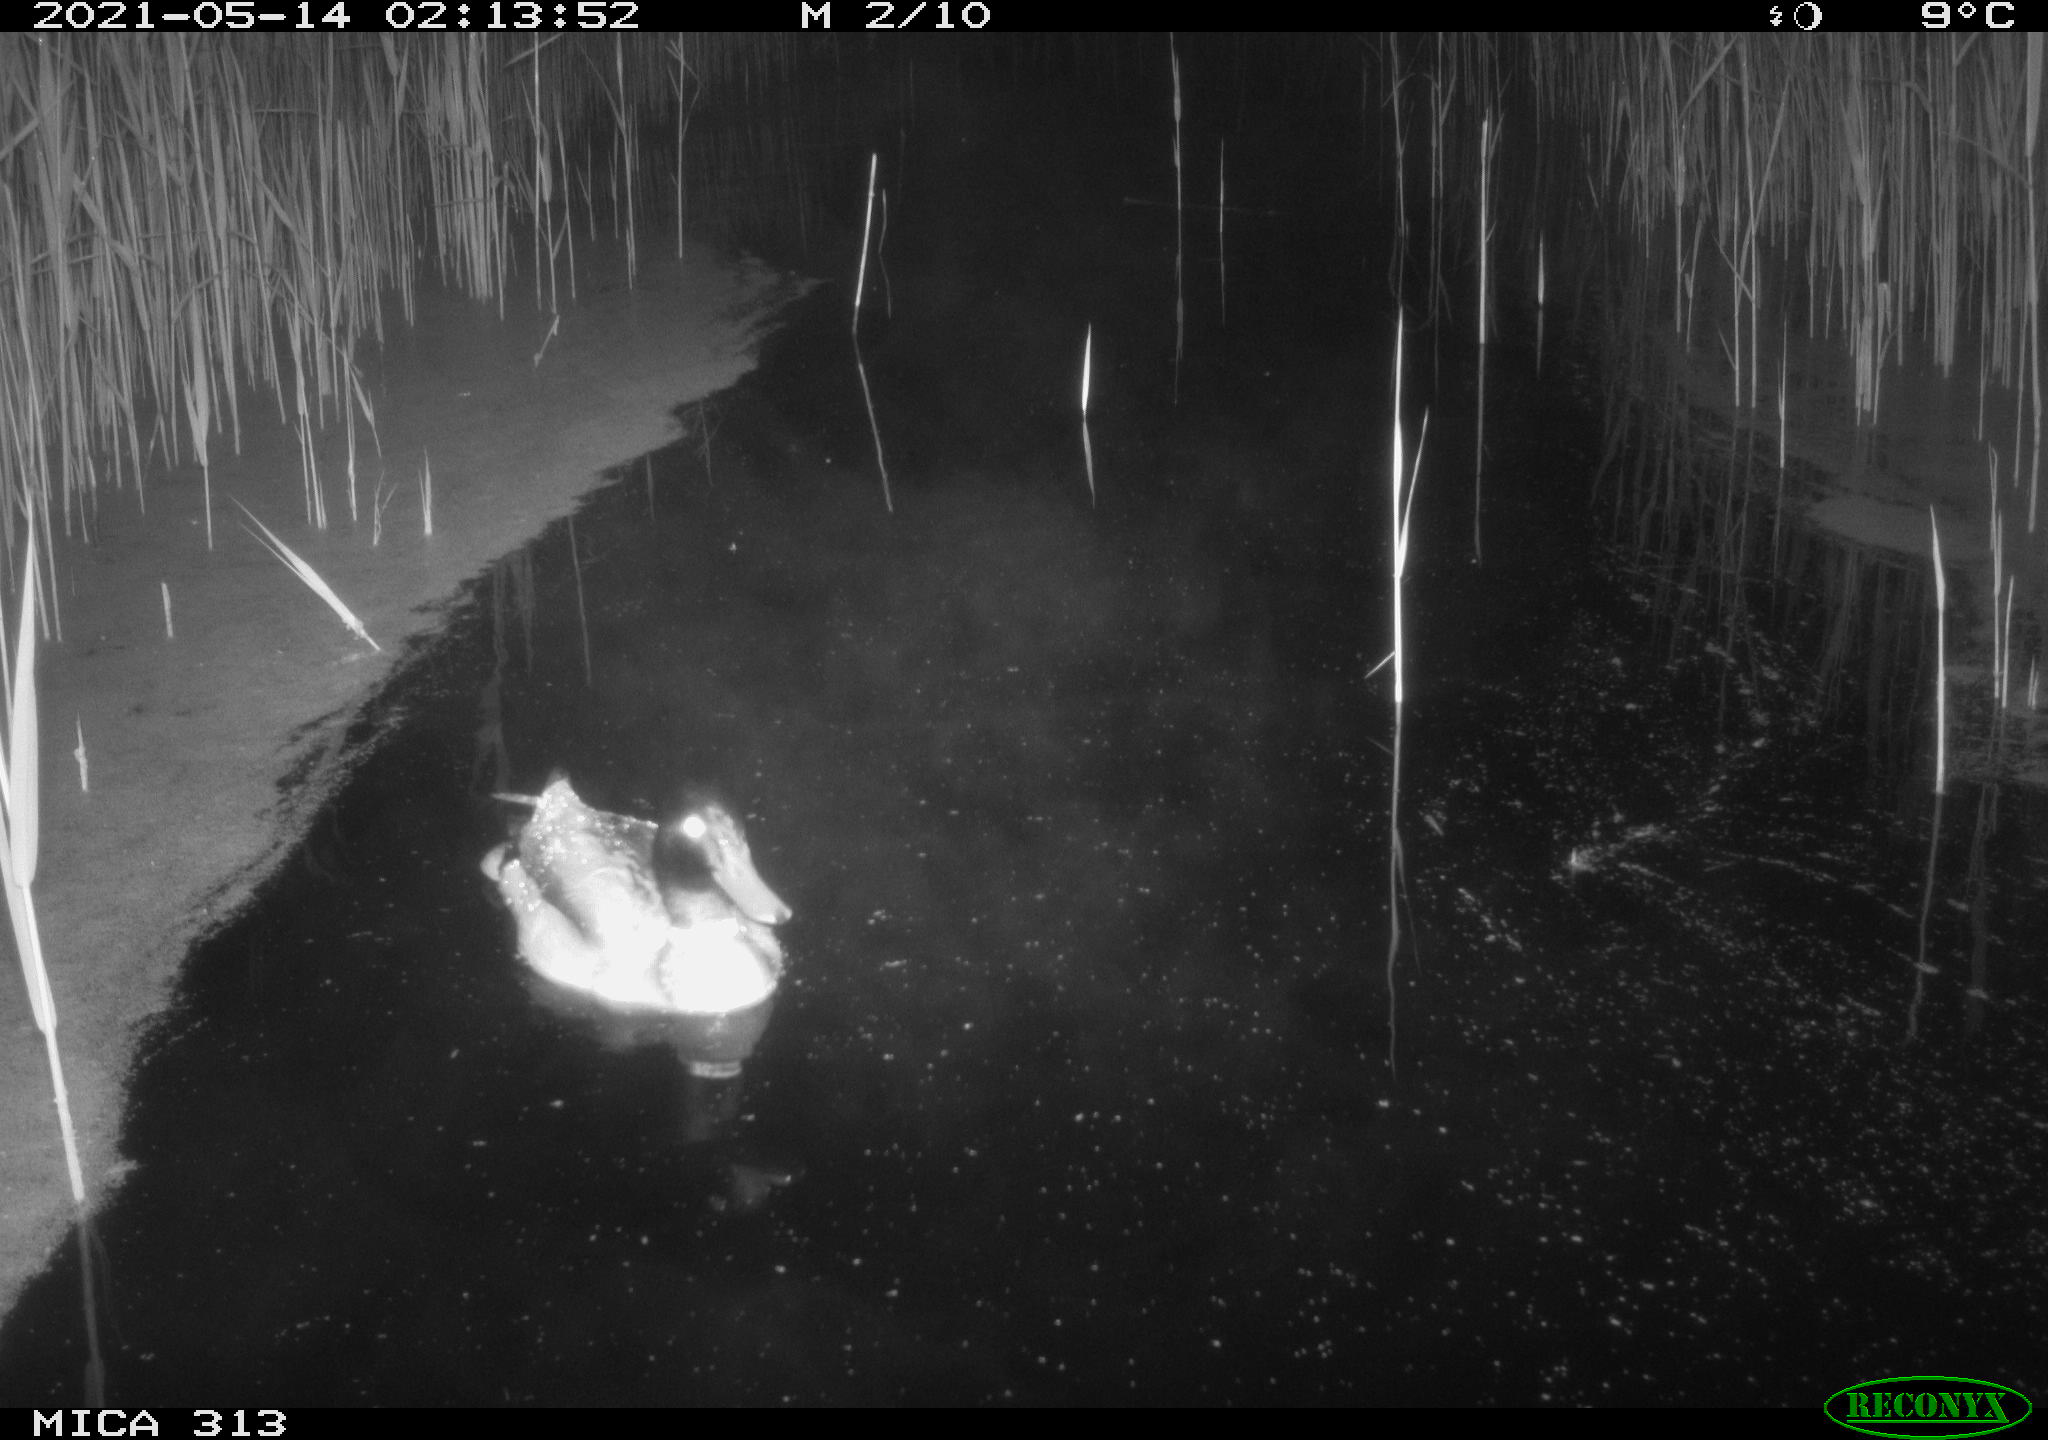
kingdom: Animalia
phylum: Chordata
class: Aves
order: Anseriformes
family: Anatidae
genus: Mareca
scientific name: Mareca strepera
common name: Gadwall
